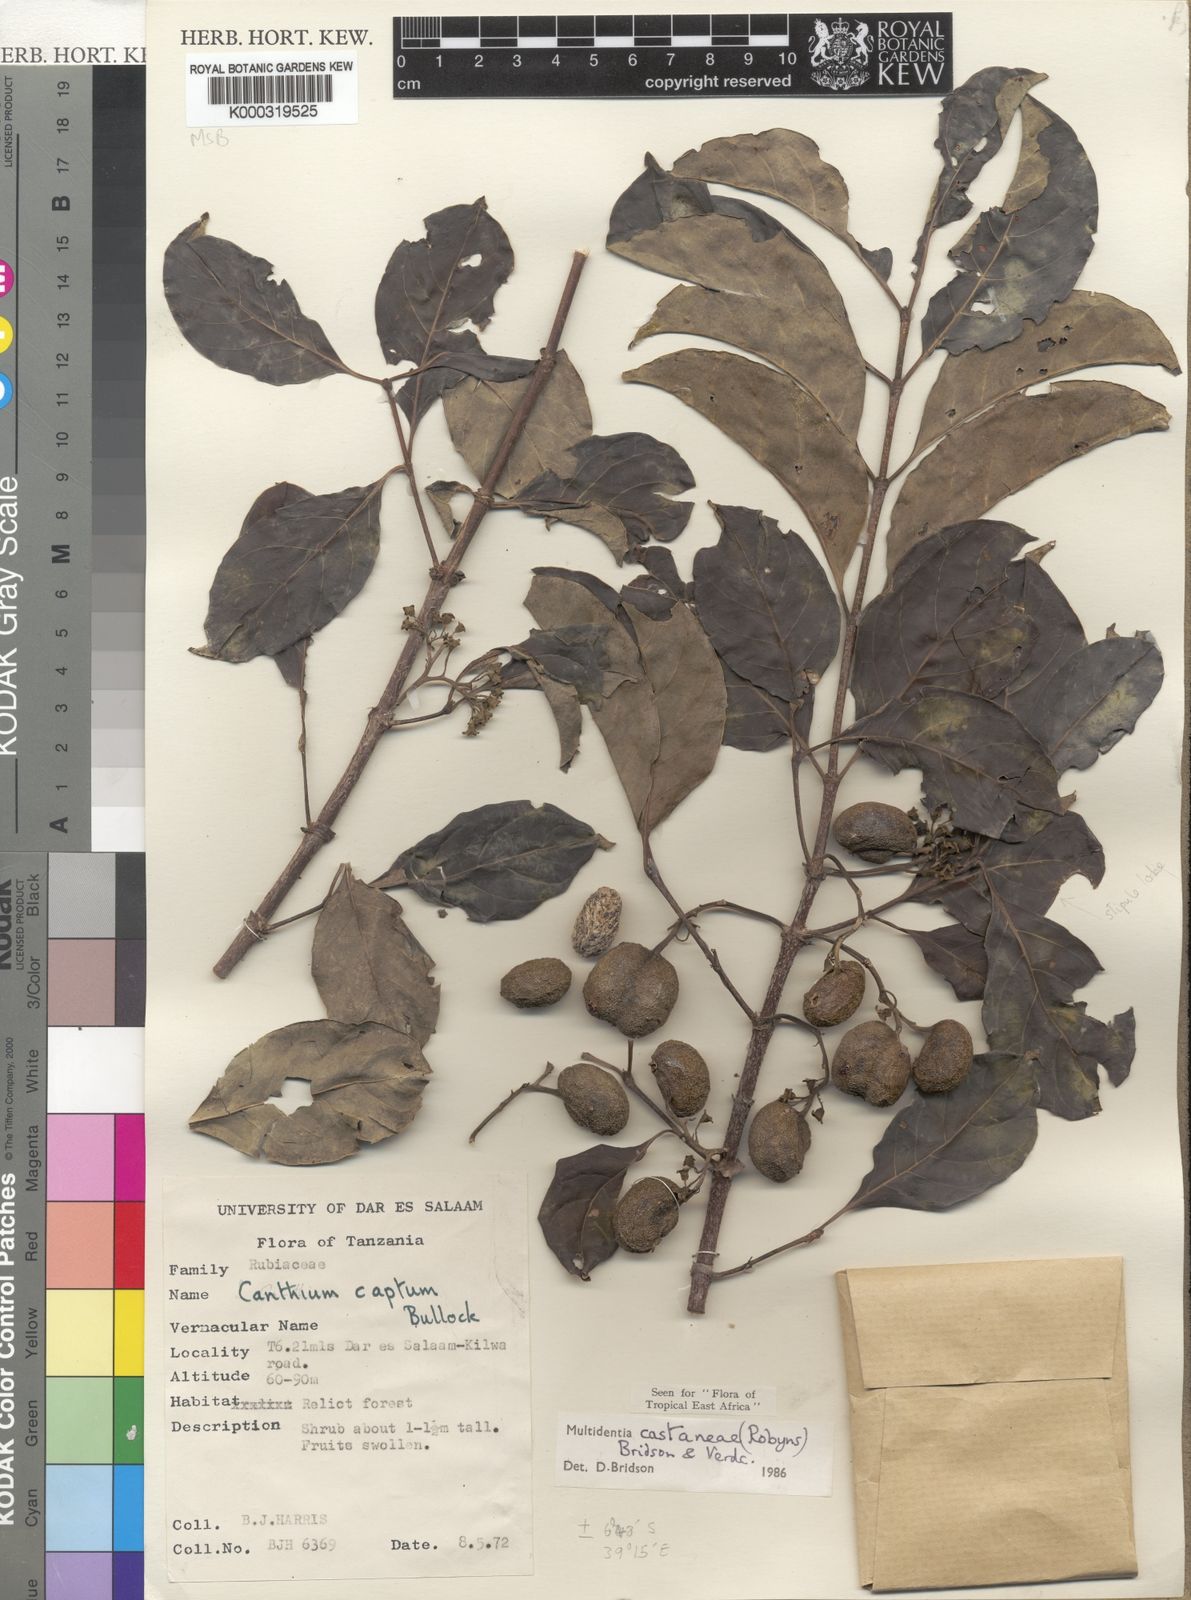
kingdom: Plantae
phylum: Tracheophyta
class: Magnoliopsida
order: Gentianales
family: Rubiaceae
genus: Multidentia
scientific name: Multidentia castanea
